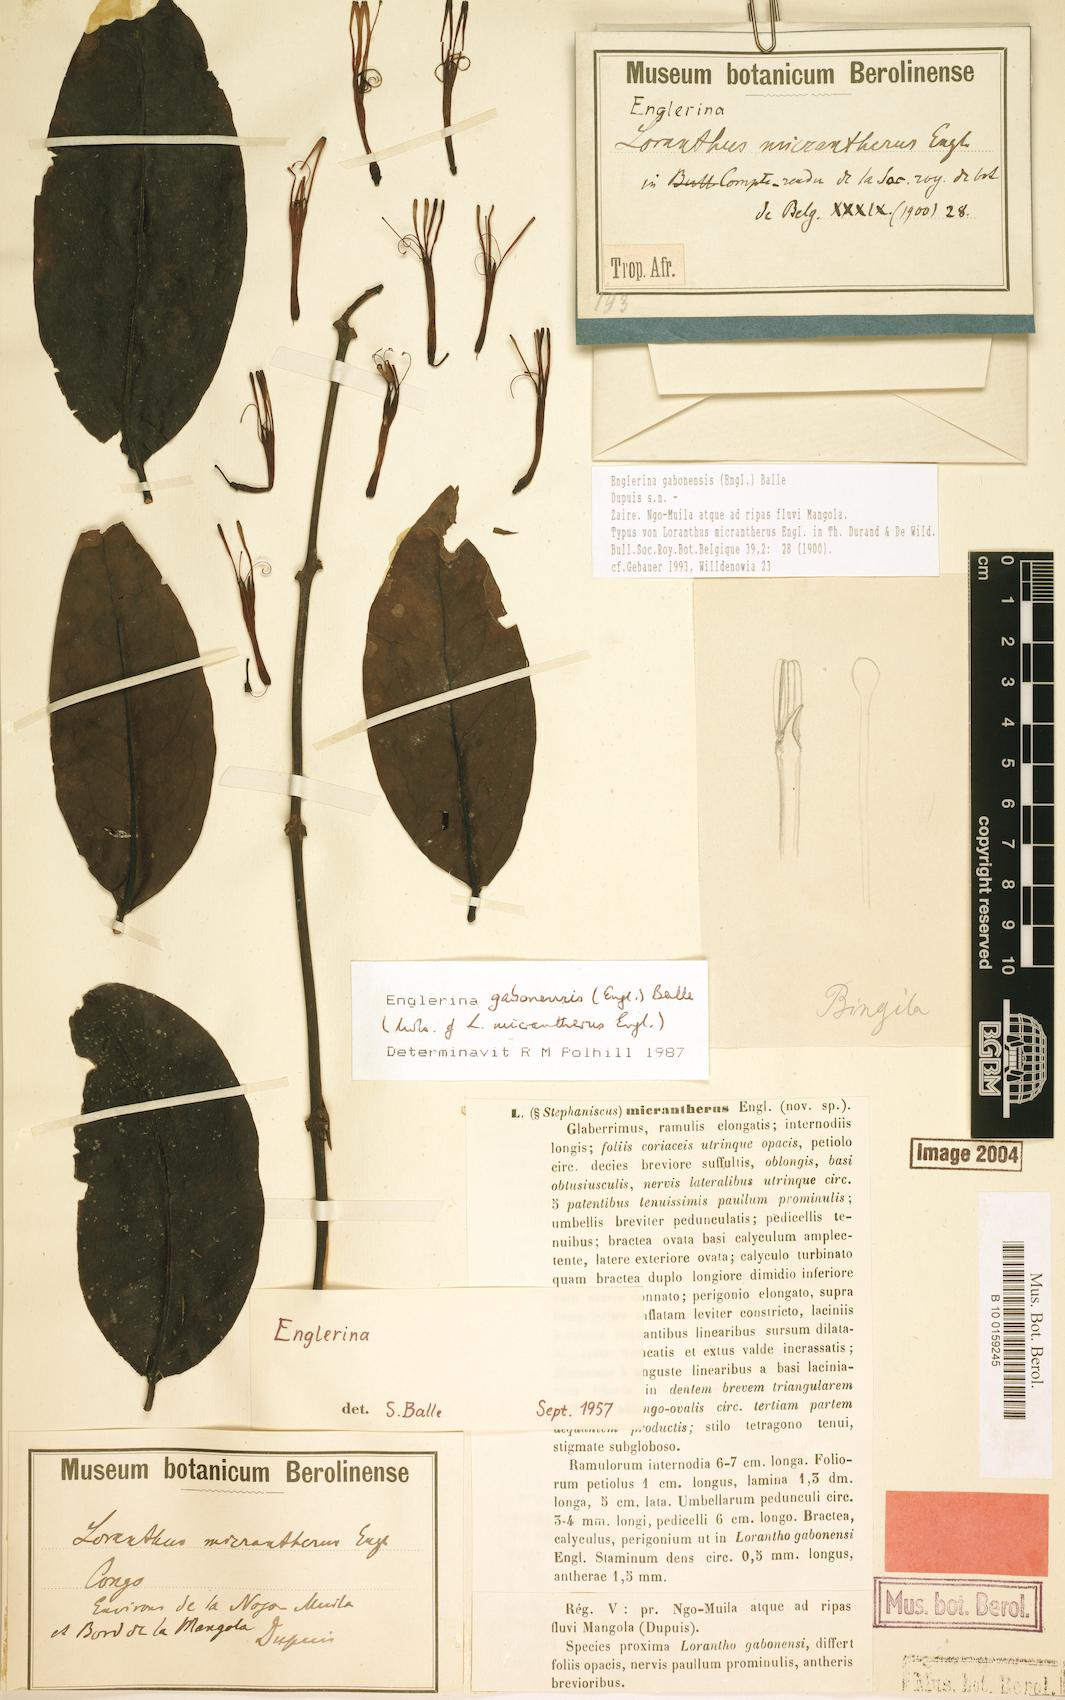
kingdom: Plantae
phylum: Tracheophyta
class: Magnoliopsida
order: Santalales
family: Loranthaceae
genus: Englerina
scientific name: Englerina gabonensis
